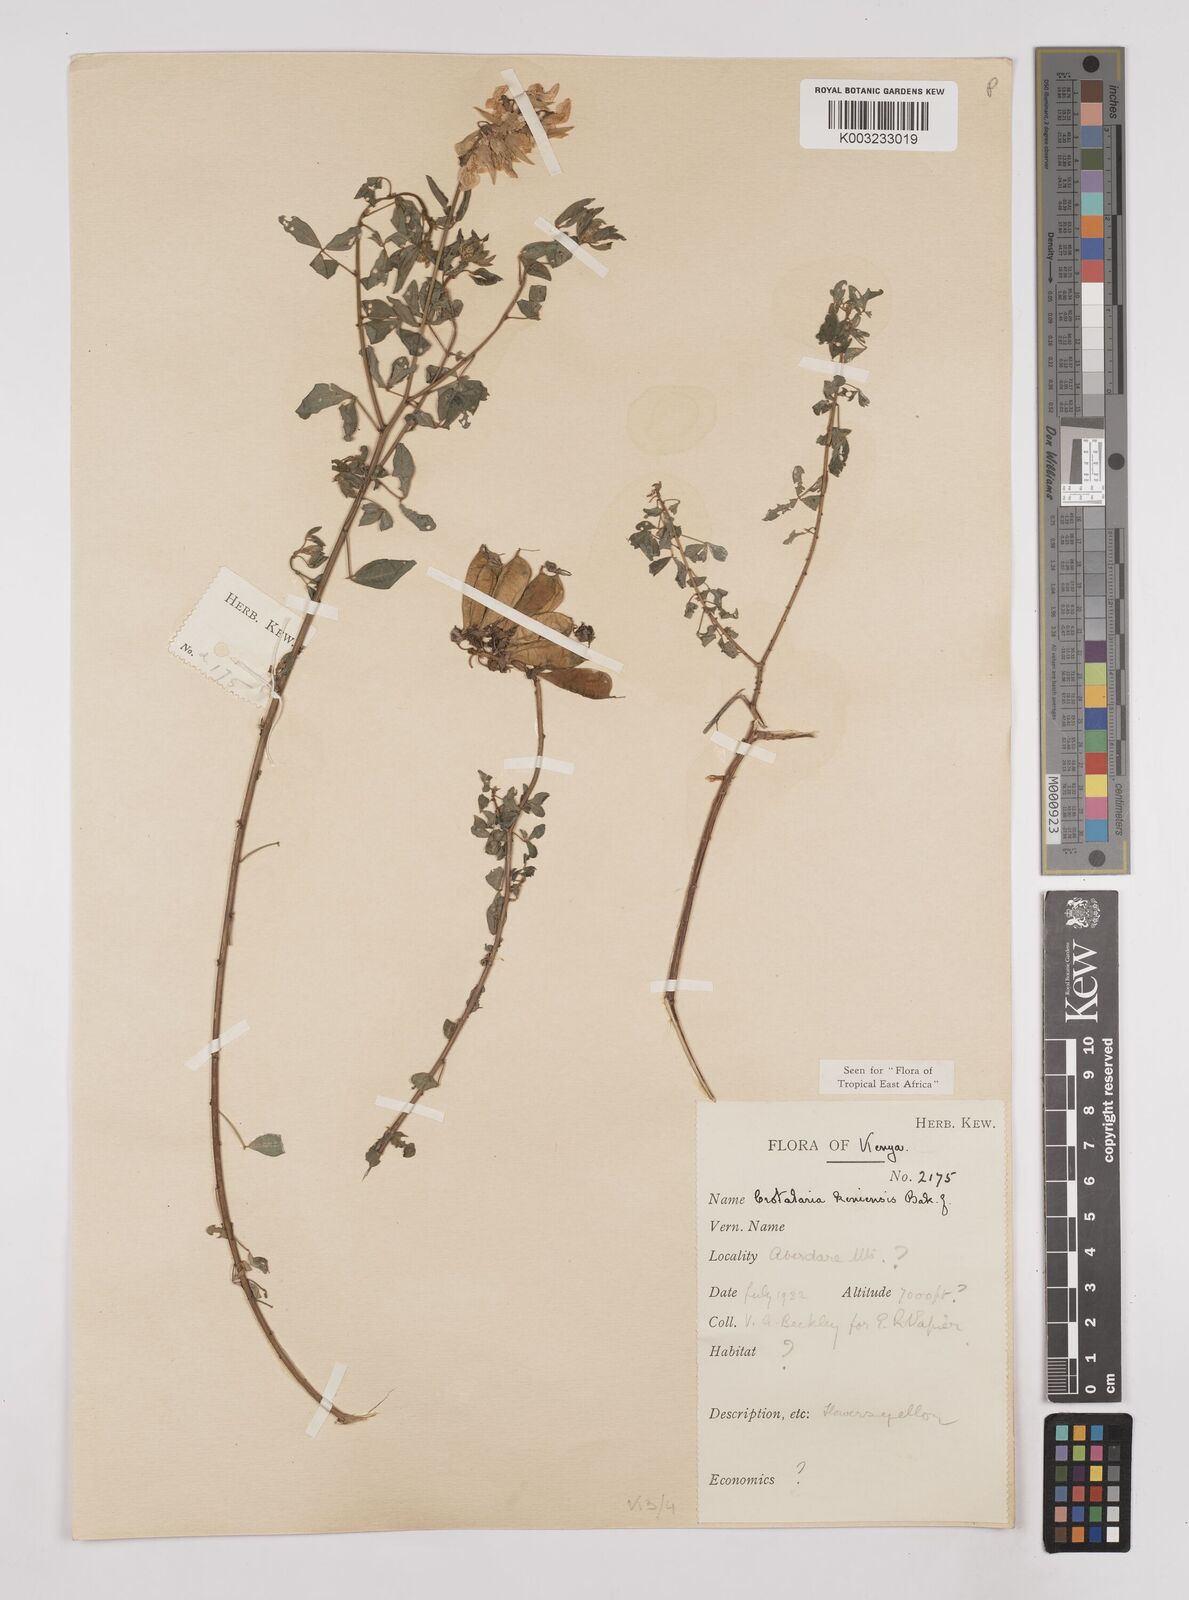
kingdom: Plantae
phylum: Tracheophyta
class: Magnoliopsida
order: Fabales
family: Fabaceae
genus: Crotalaria
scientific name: Crotalaria keniensis
